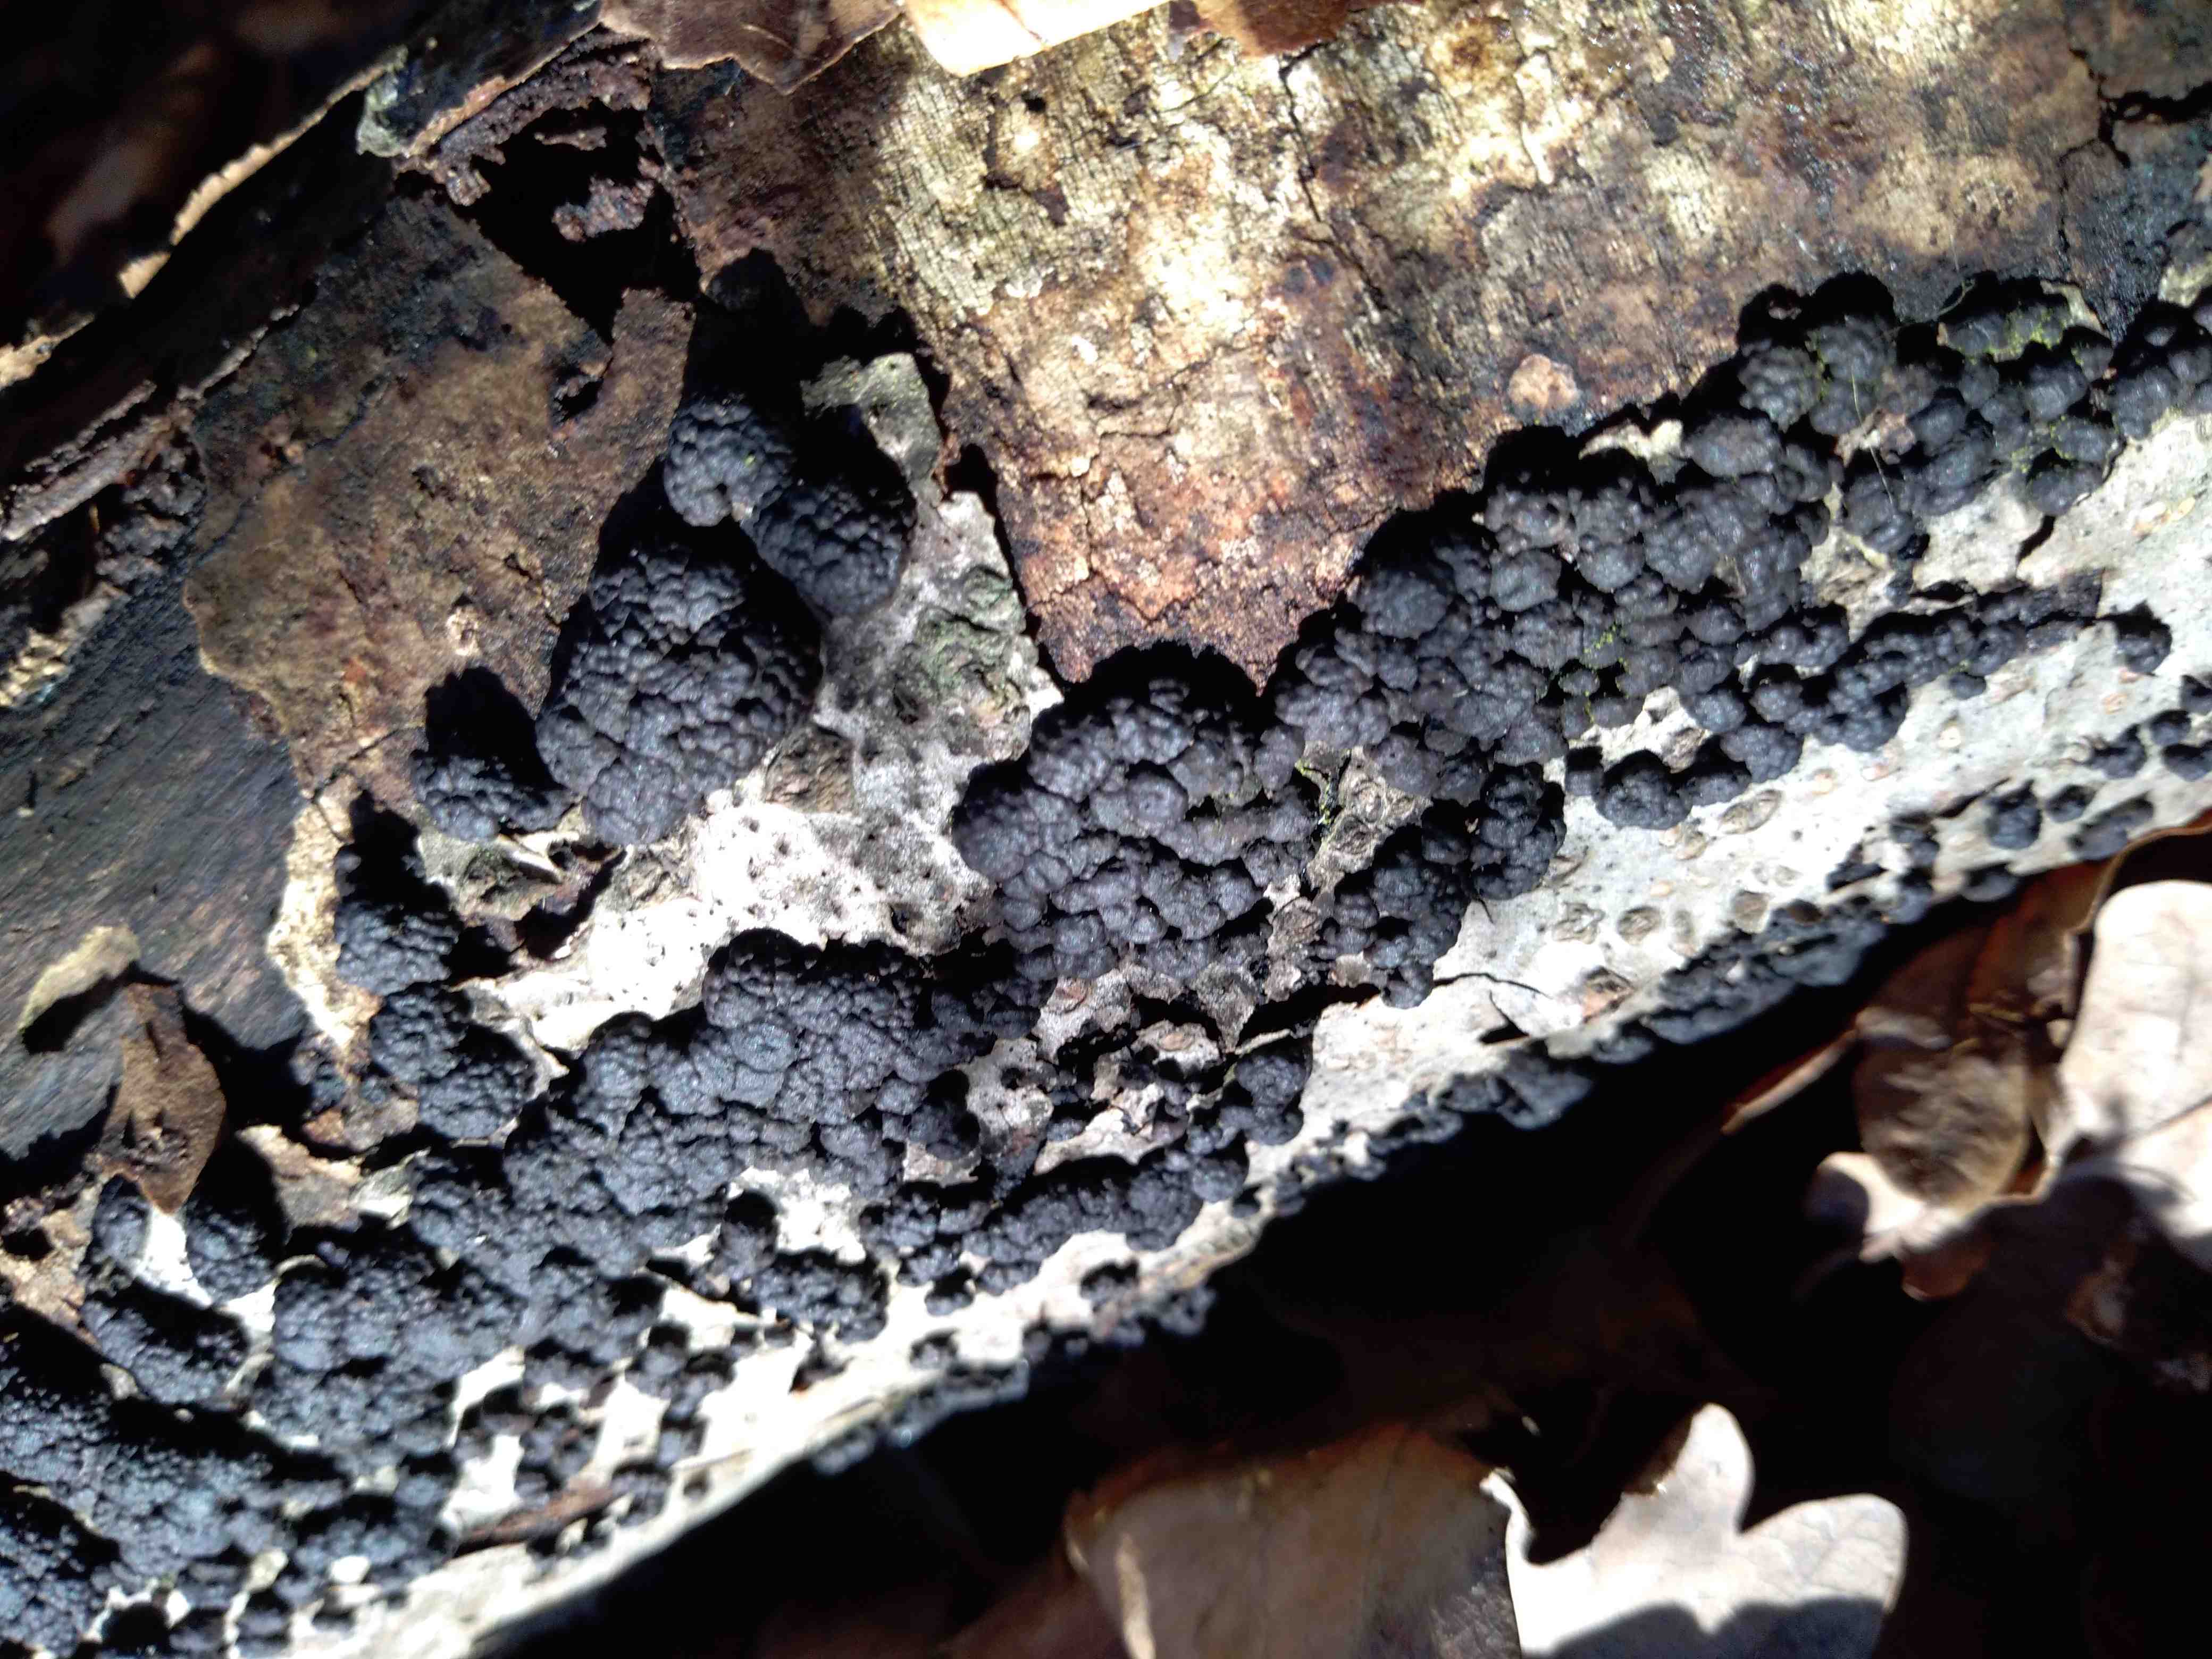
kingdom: Fungi
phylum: Ascomycota
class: Sordariomycetes
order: Xylariales
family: Hypoxylaceae
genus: Jackrogersella
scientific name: Jackrogersella cohaerens
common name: sammenflydende kulbær
